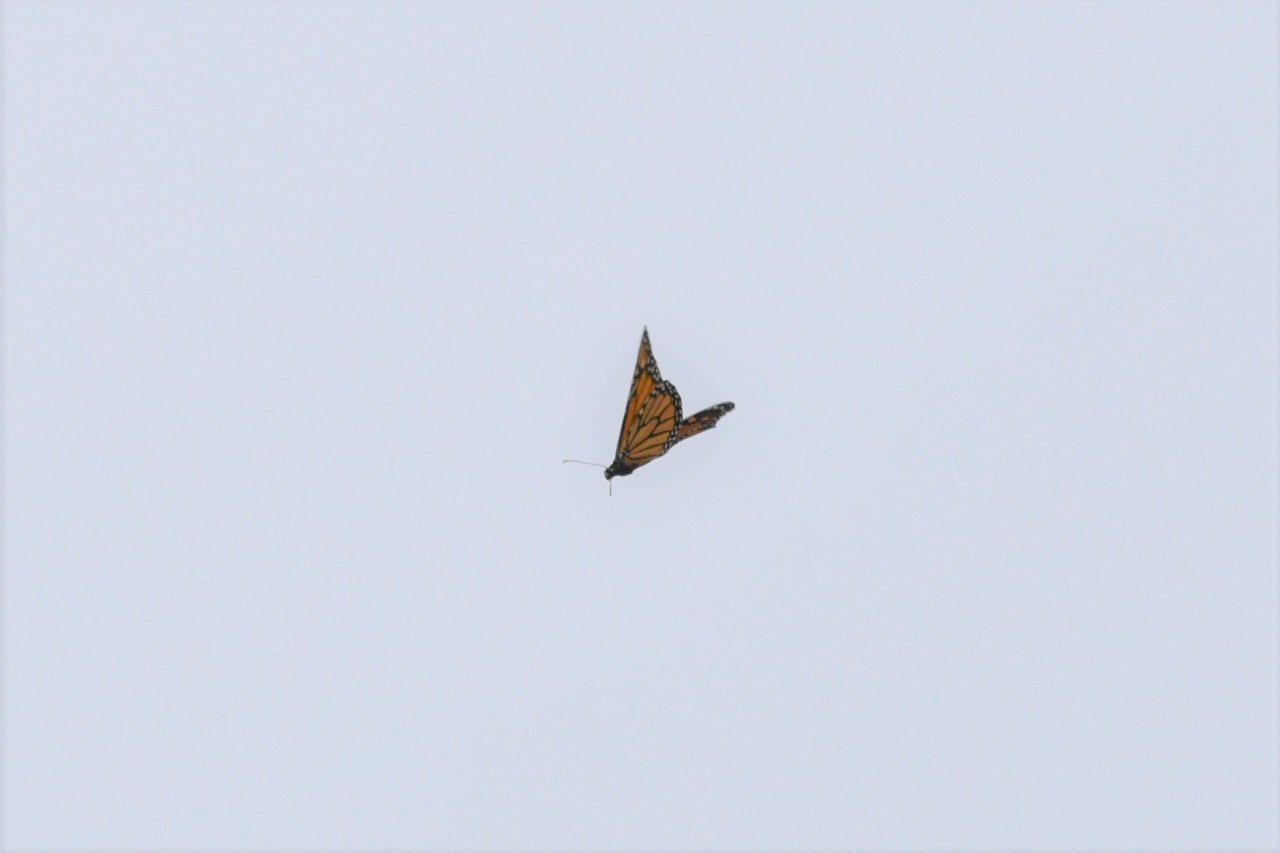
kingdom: Animalia
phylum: Arthropoda
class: Insecta
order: Lepidoptera
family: Nymphalidae
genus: Danaus
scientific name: Danaus plexippus
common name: Monarch
